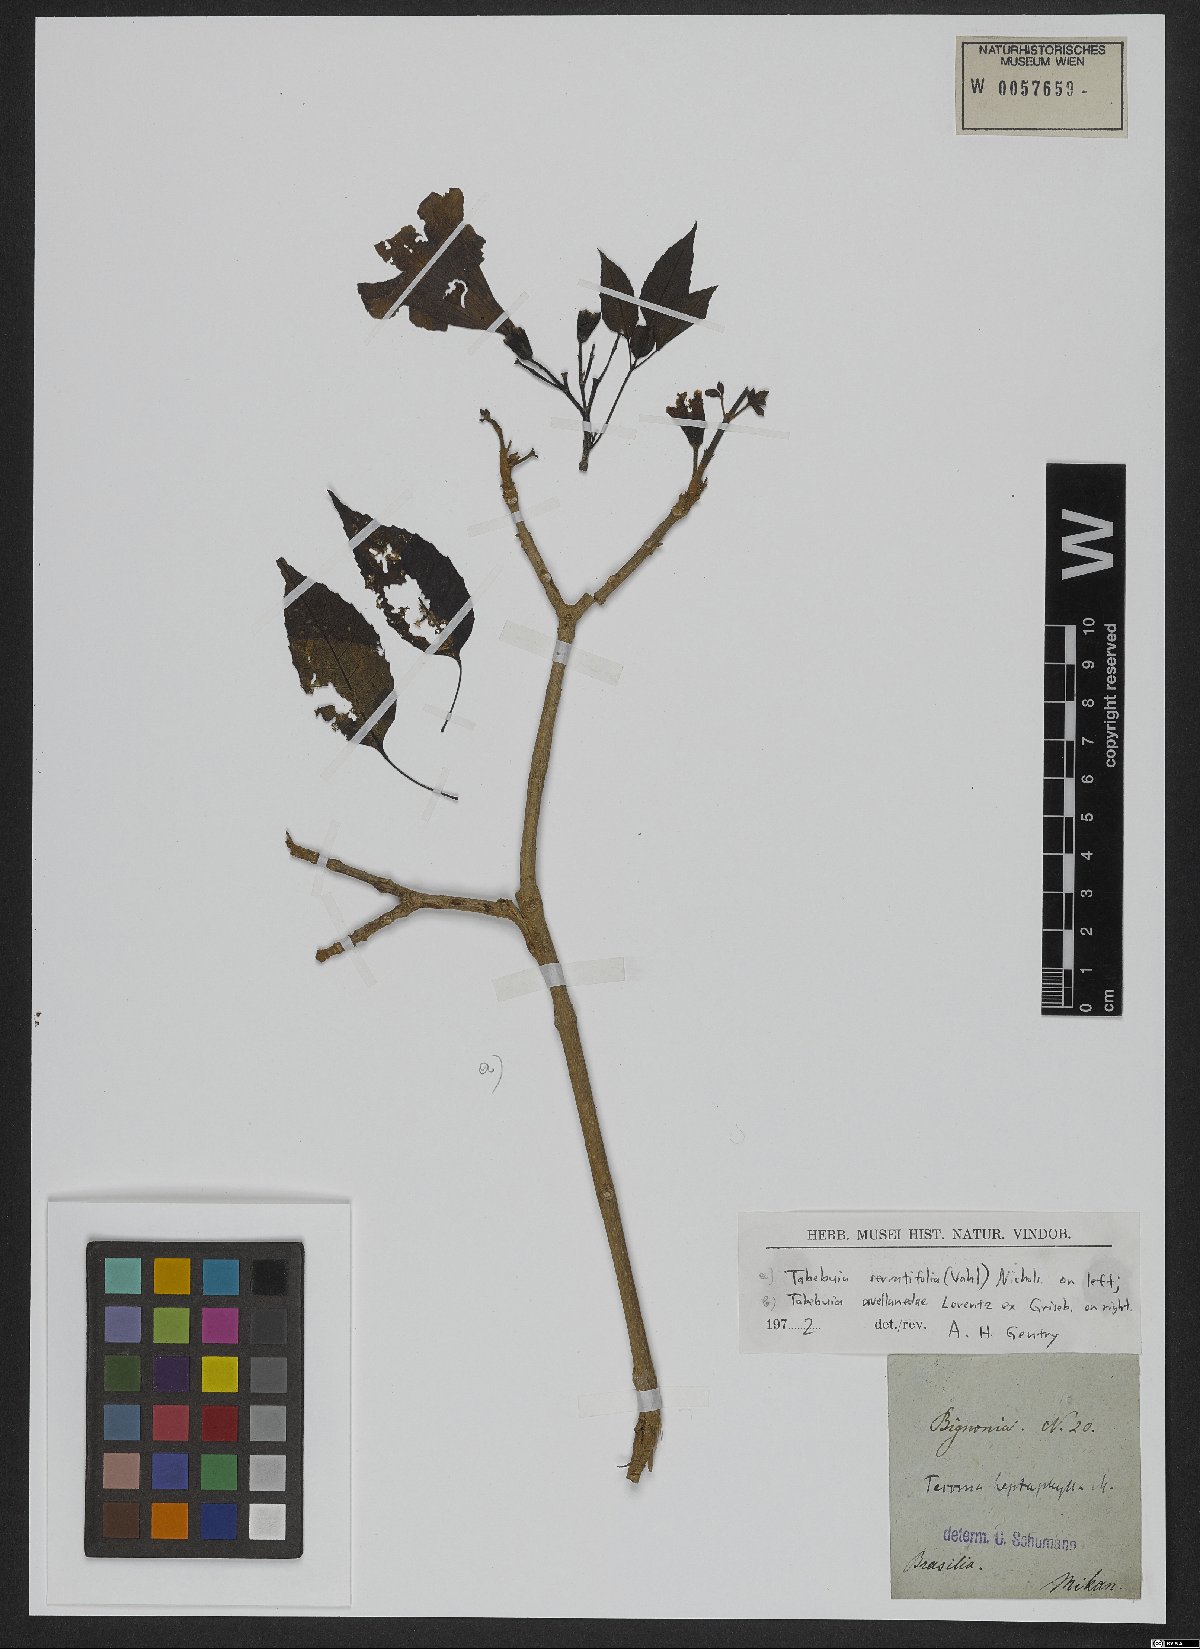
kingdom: Plantae
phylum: Tracheophyta
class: Magnoliopsida
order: Lamiales
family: Bignoniaceae
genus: Handroanthus
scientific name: Handroanthus serratifolius
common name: Yellow ipe
